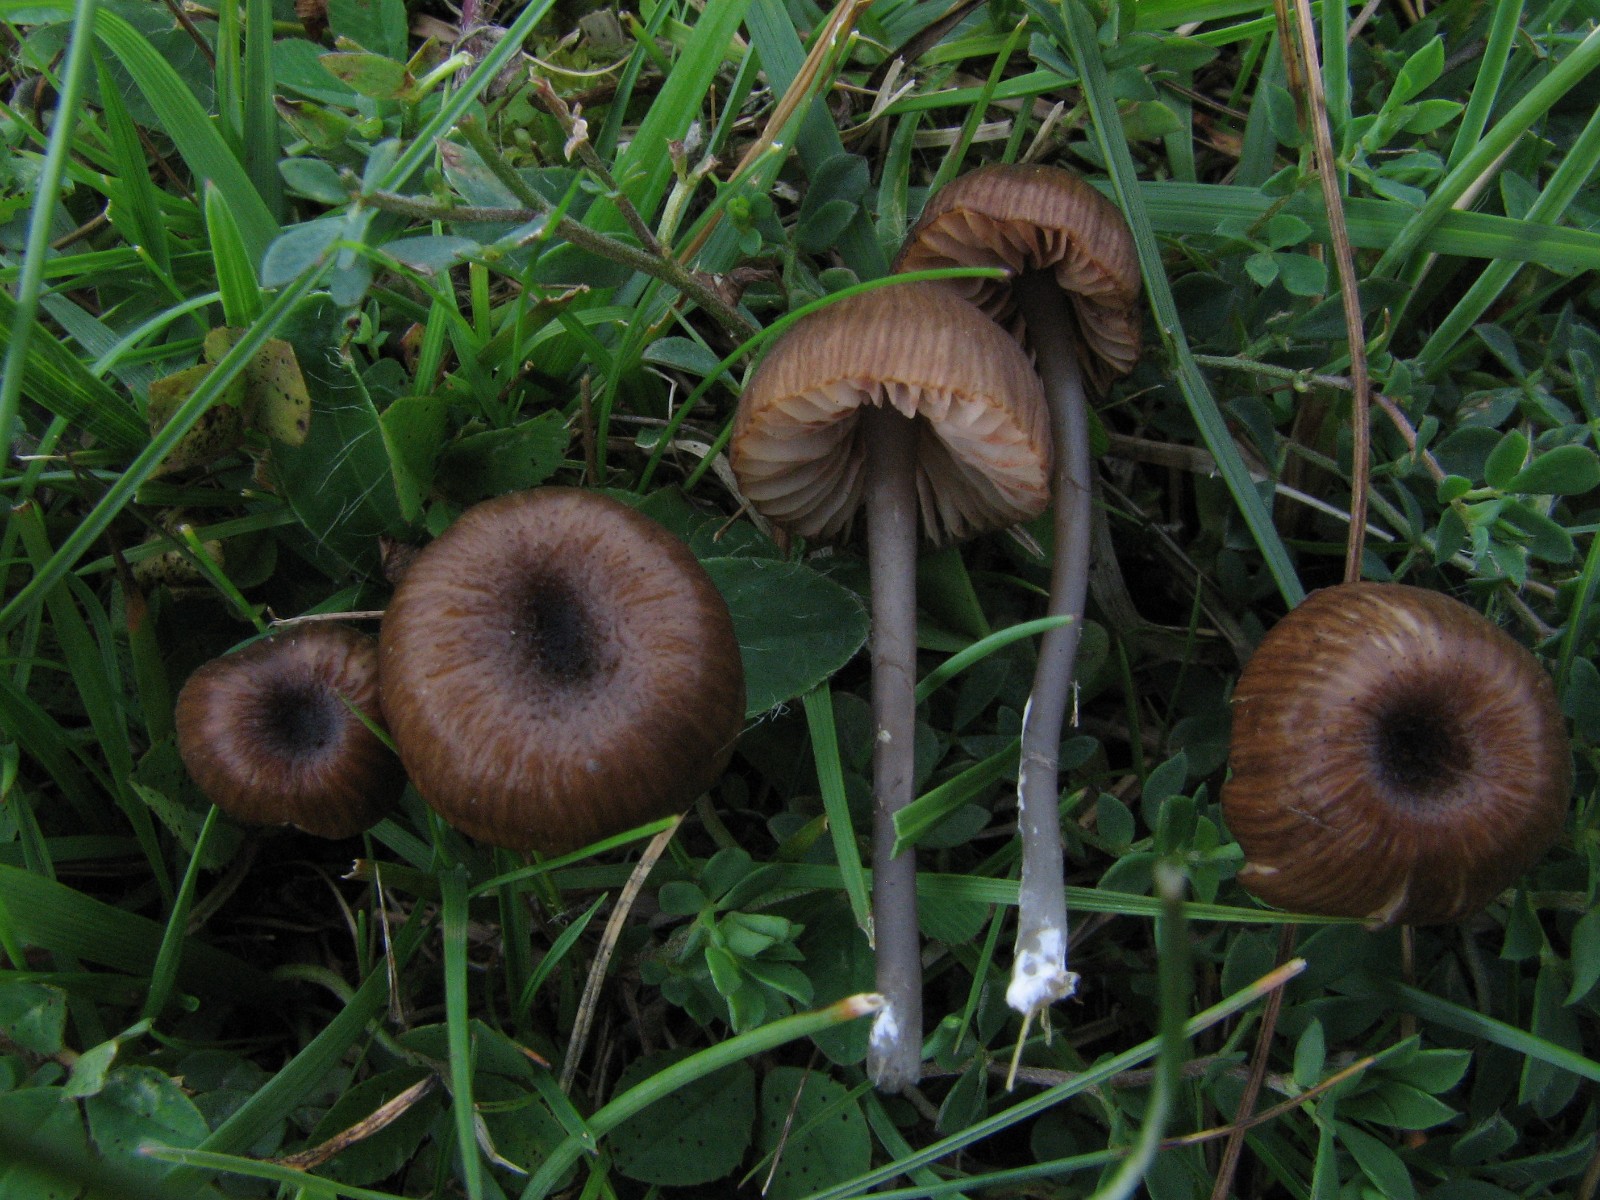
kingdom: Fungi
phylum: Basidiomycota
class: Agaricomycetes
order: Agaricales
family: Entolomataceae
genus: Entoloma
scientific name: Entoloma insidiosum
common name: ru rødblad
